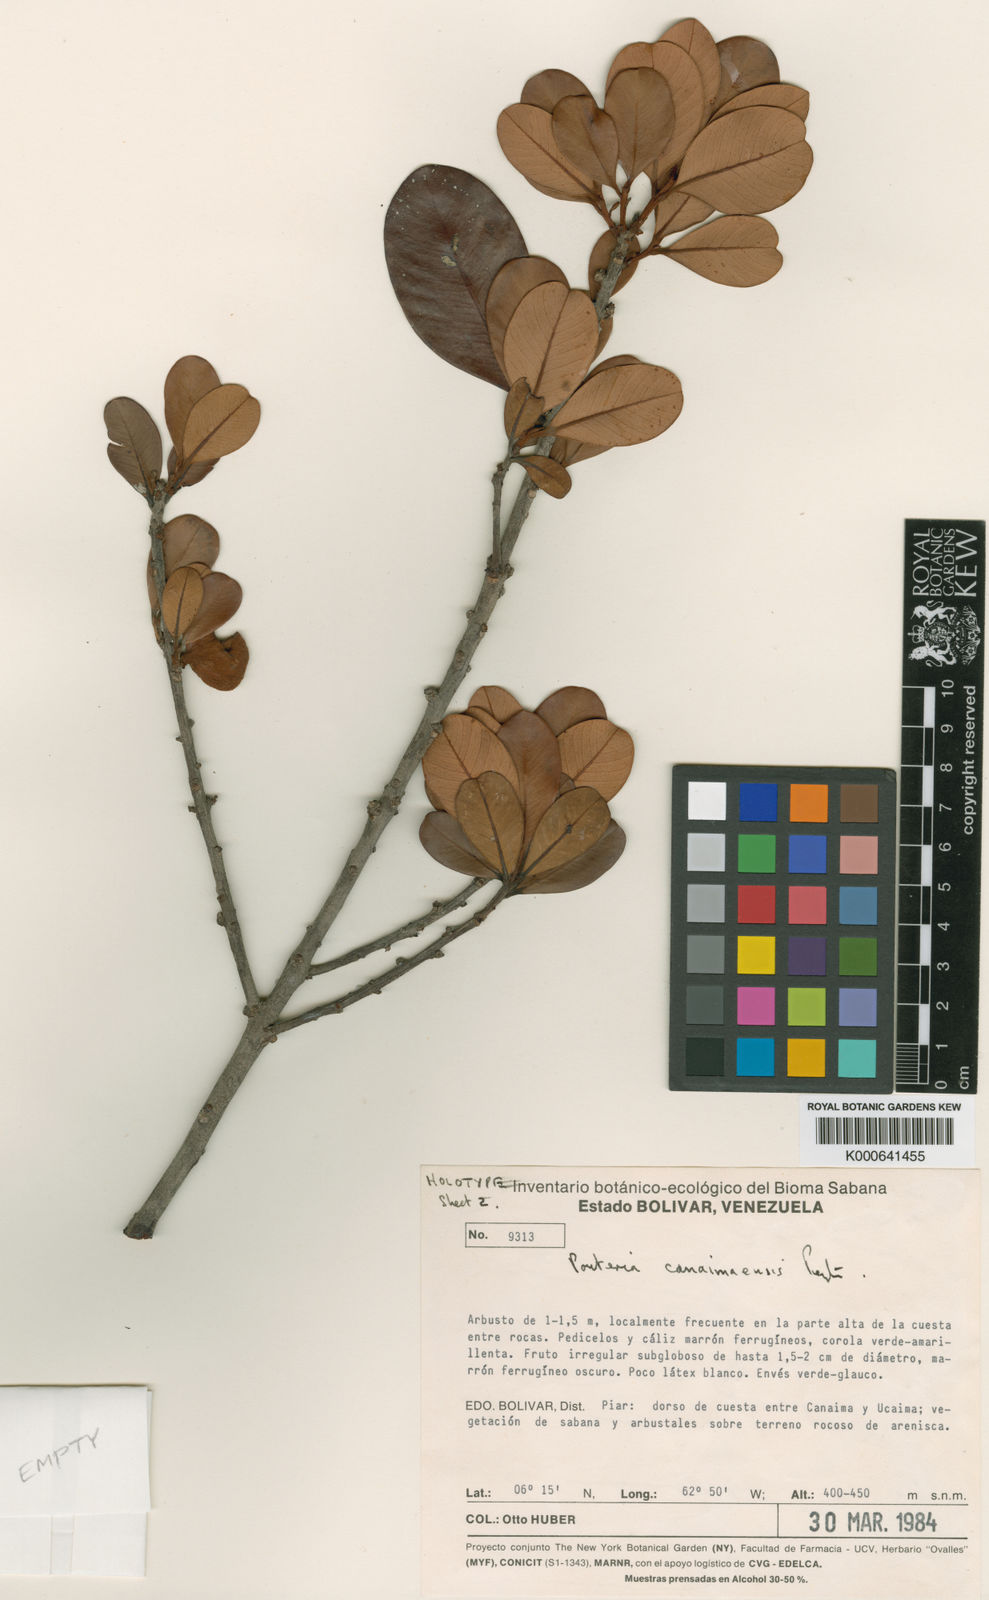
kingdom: Plantae
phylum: Tracheophyta
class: Magnoliopsida
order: Ericales
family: Sapotaceae
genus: Pouteria
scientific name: Pouteria canaimaensis
